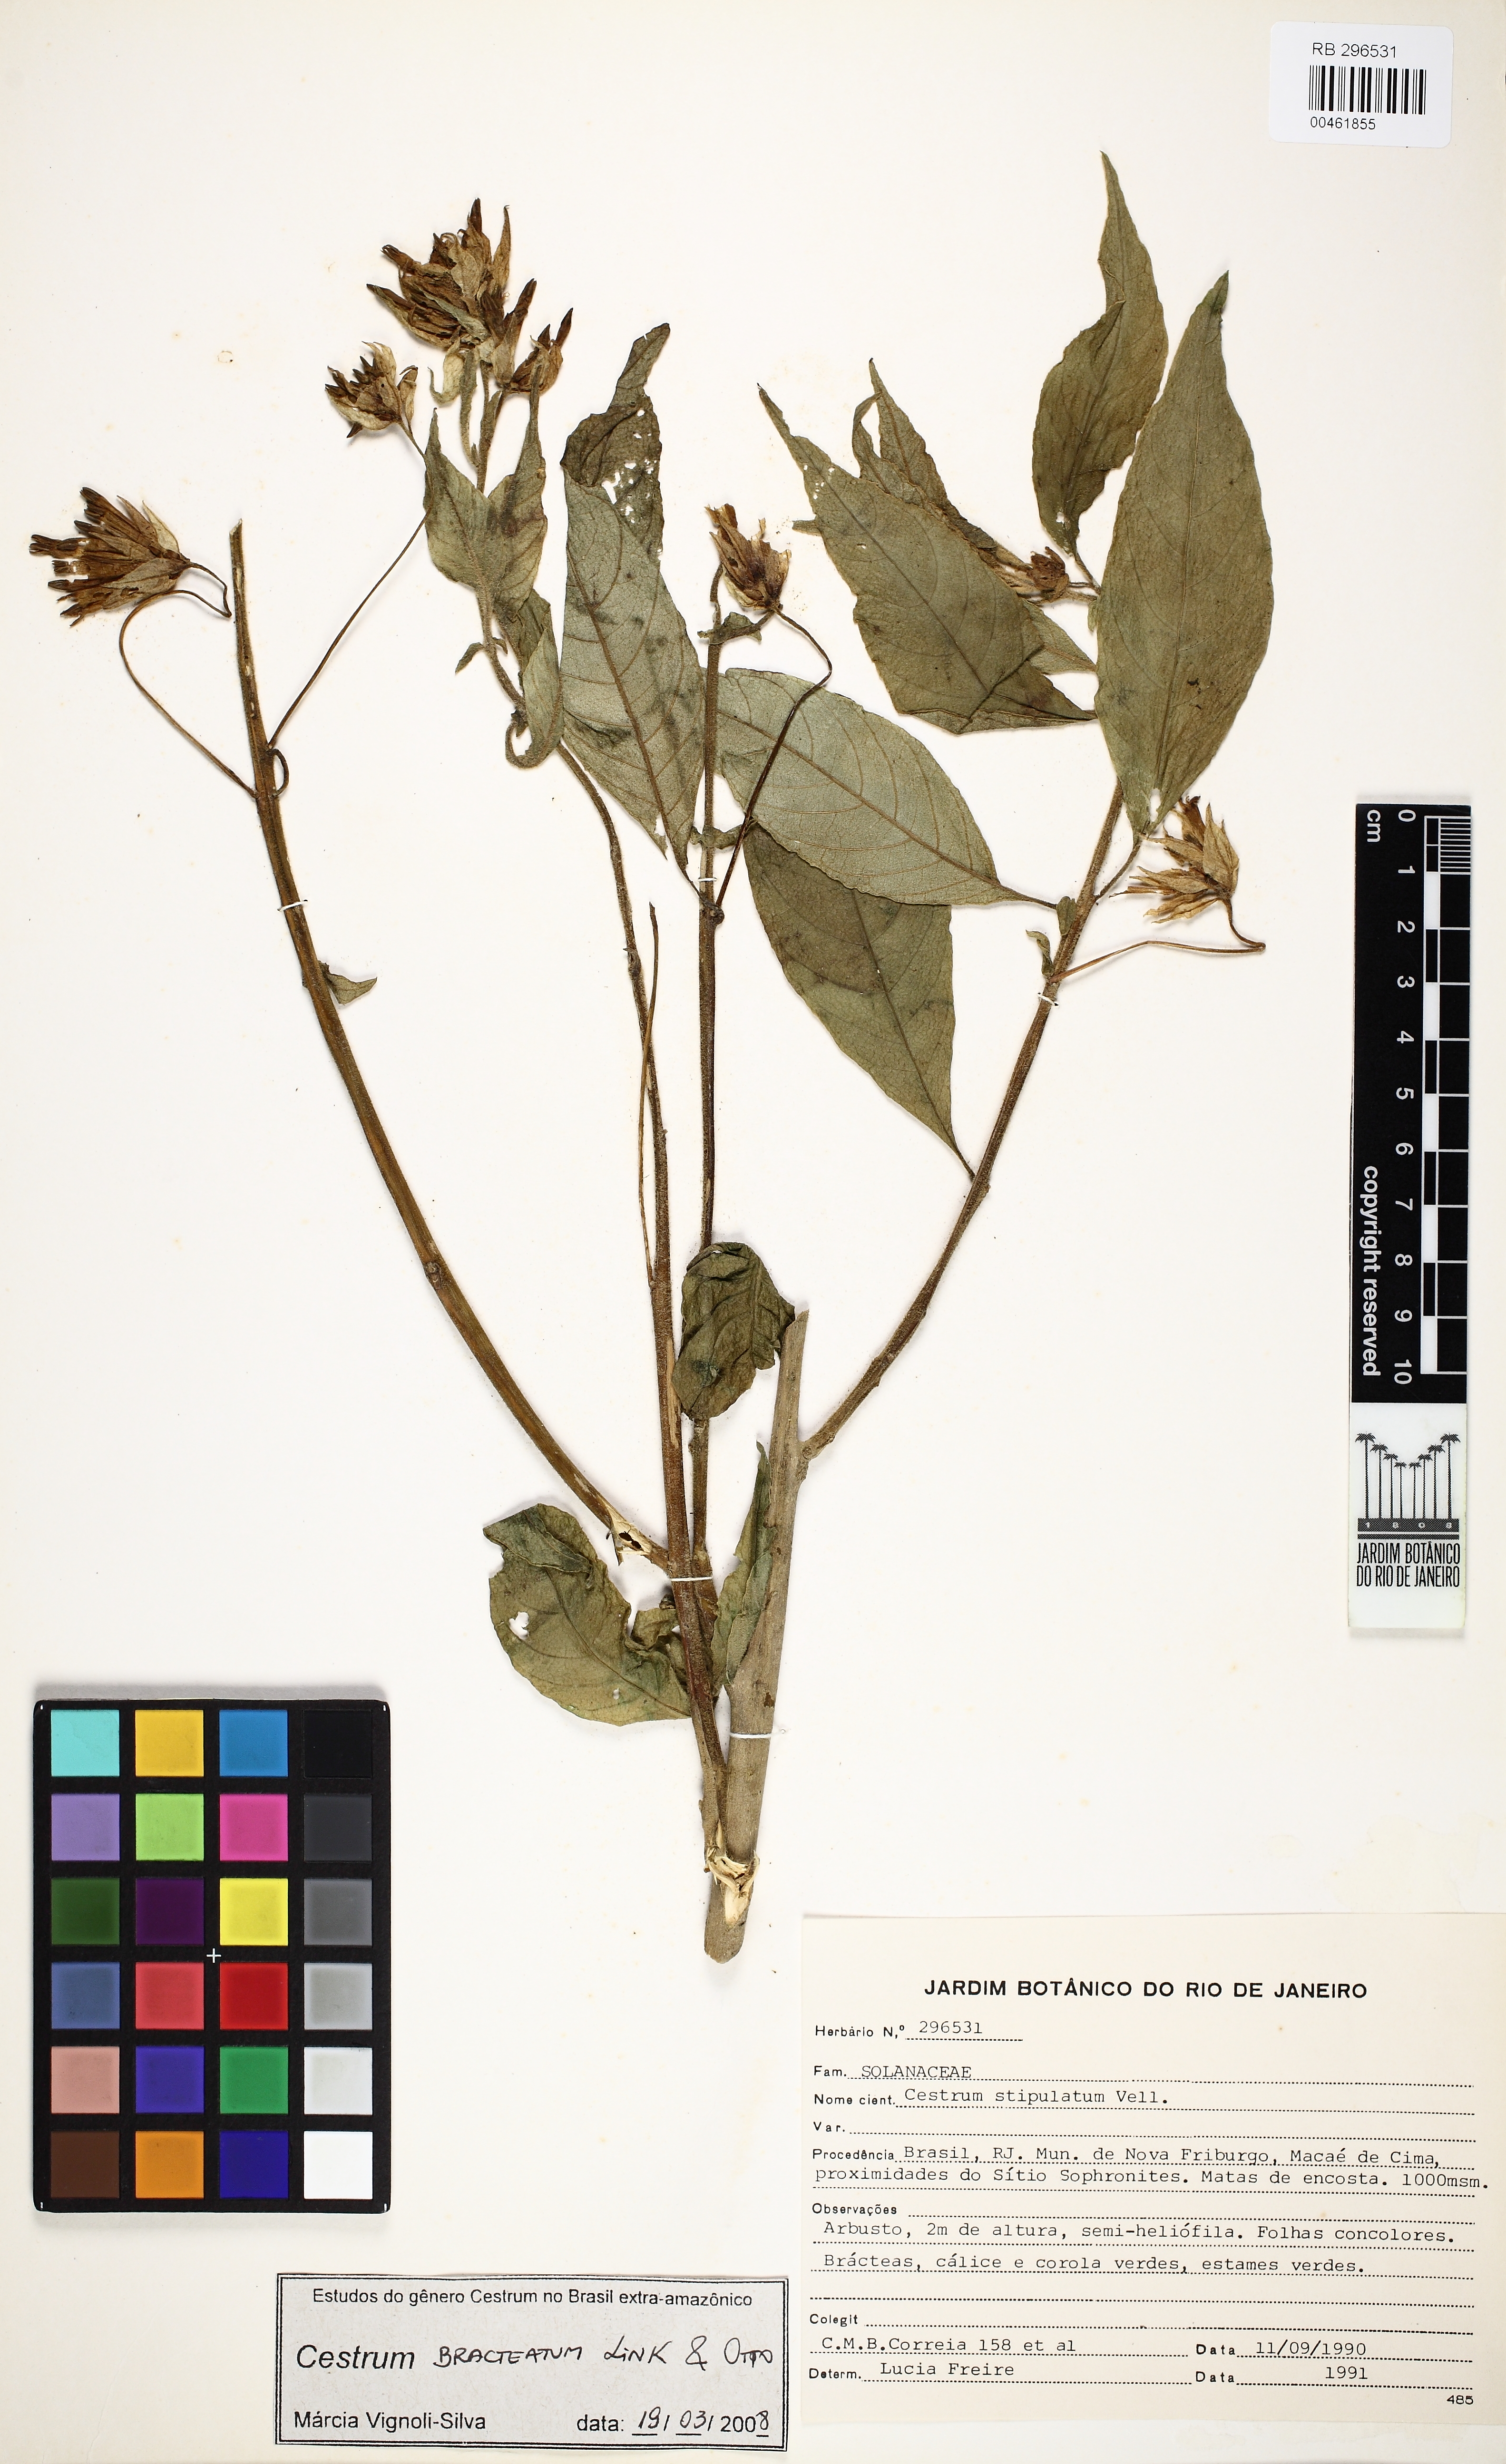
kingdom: Plantae
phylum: Tracheophyta
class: Magnoliopsida
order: Solanales
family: Solanaceae
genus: Cestrum
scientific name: Cestrum bracteatum
